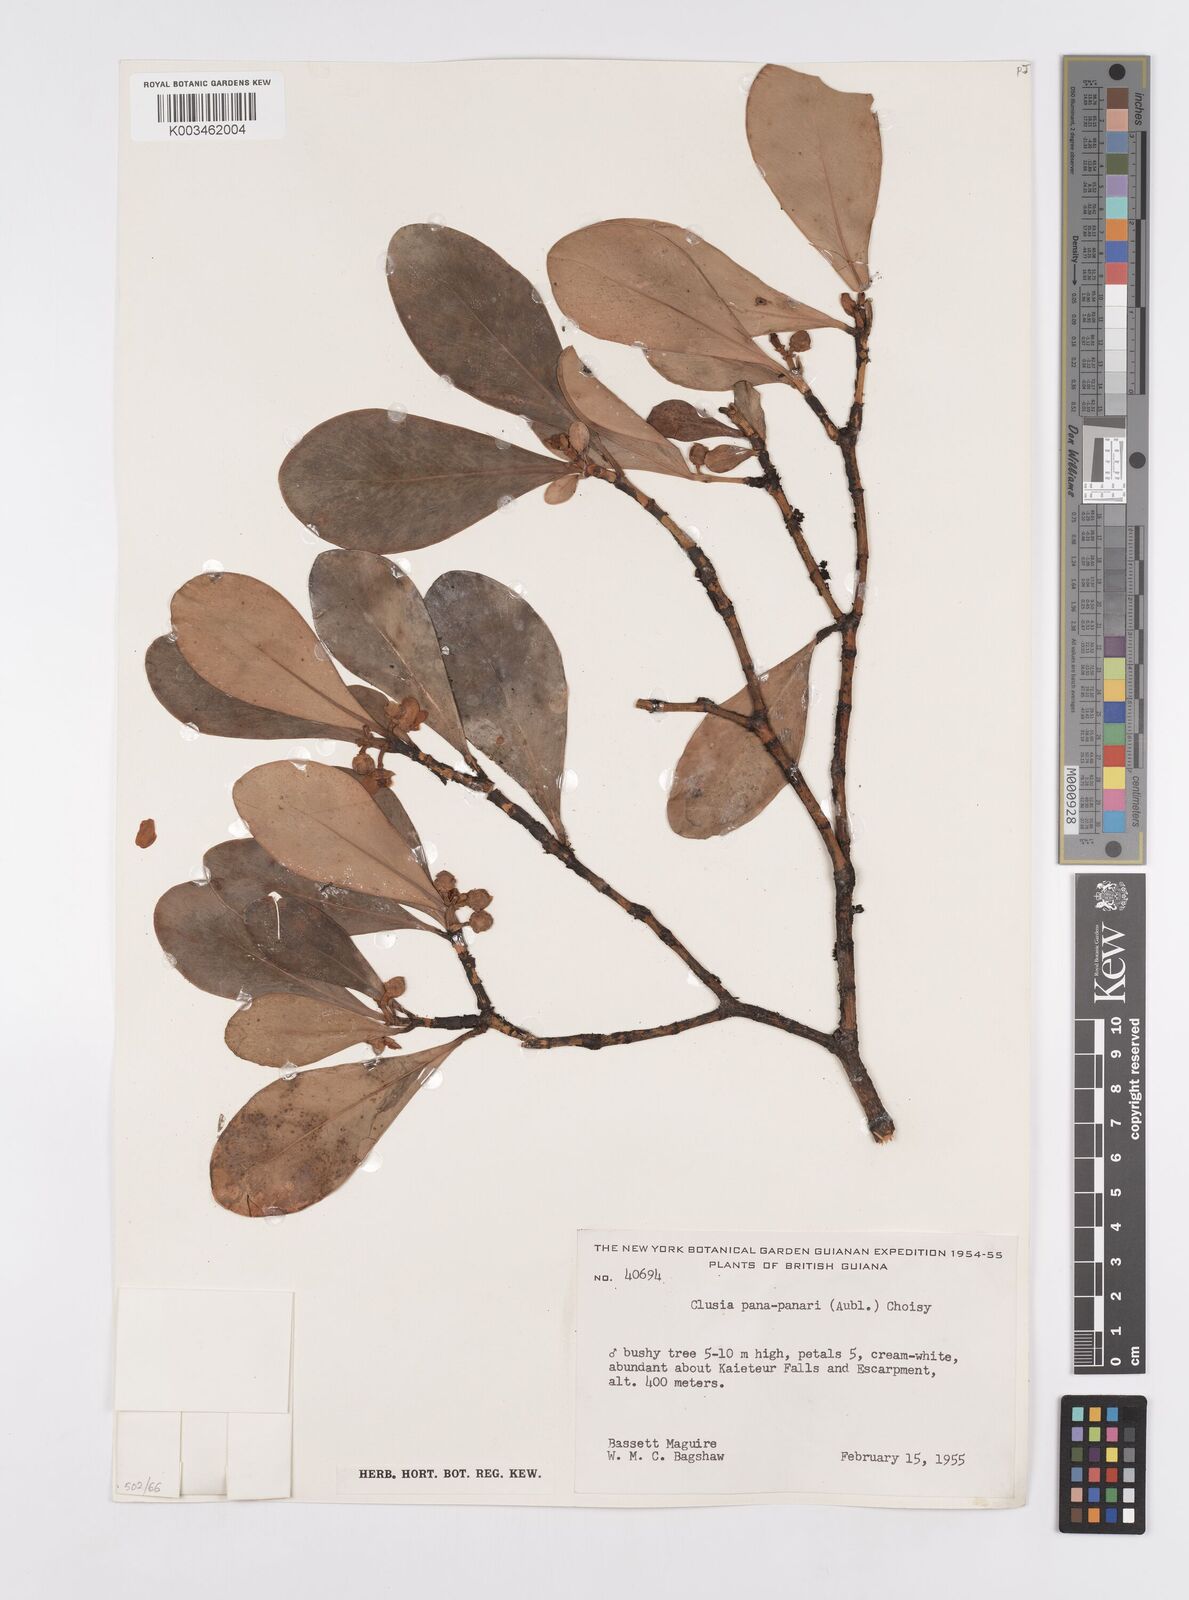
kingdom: Plantae
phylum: Tracheophyta
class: Magnoliopsida
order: Malpighiales
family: Clusiaceae
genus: Clusia
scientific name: Clusia panapanari
